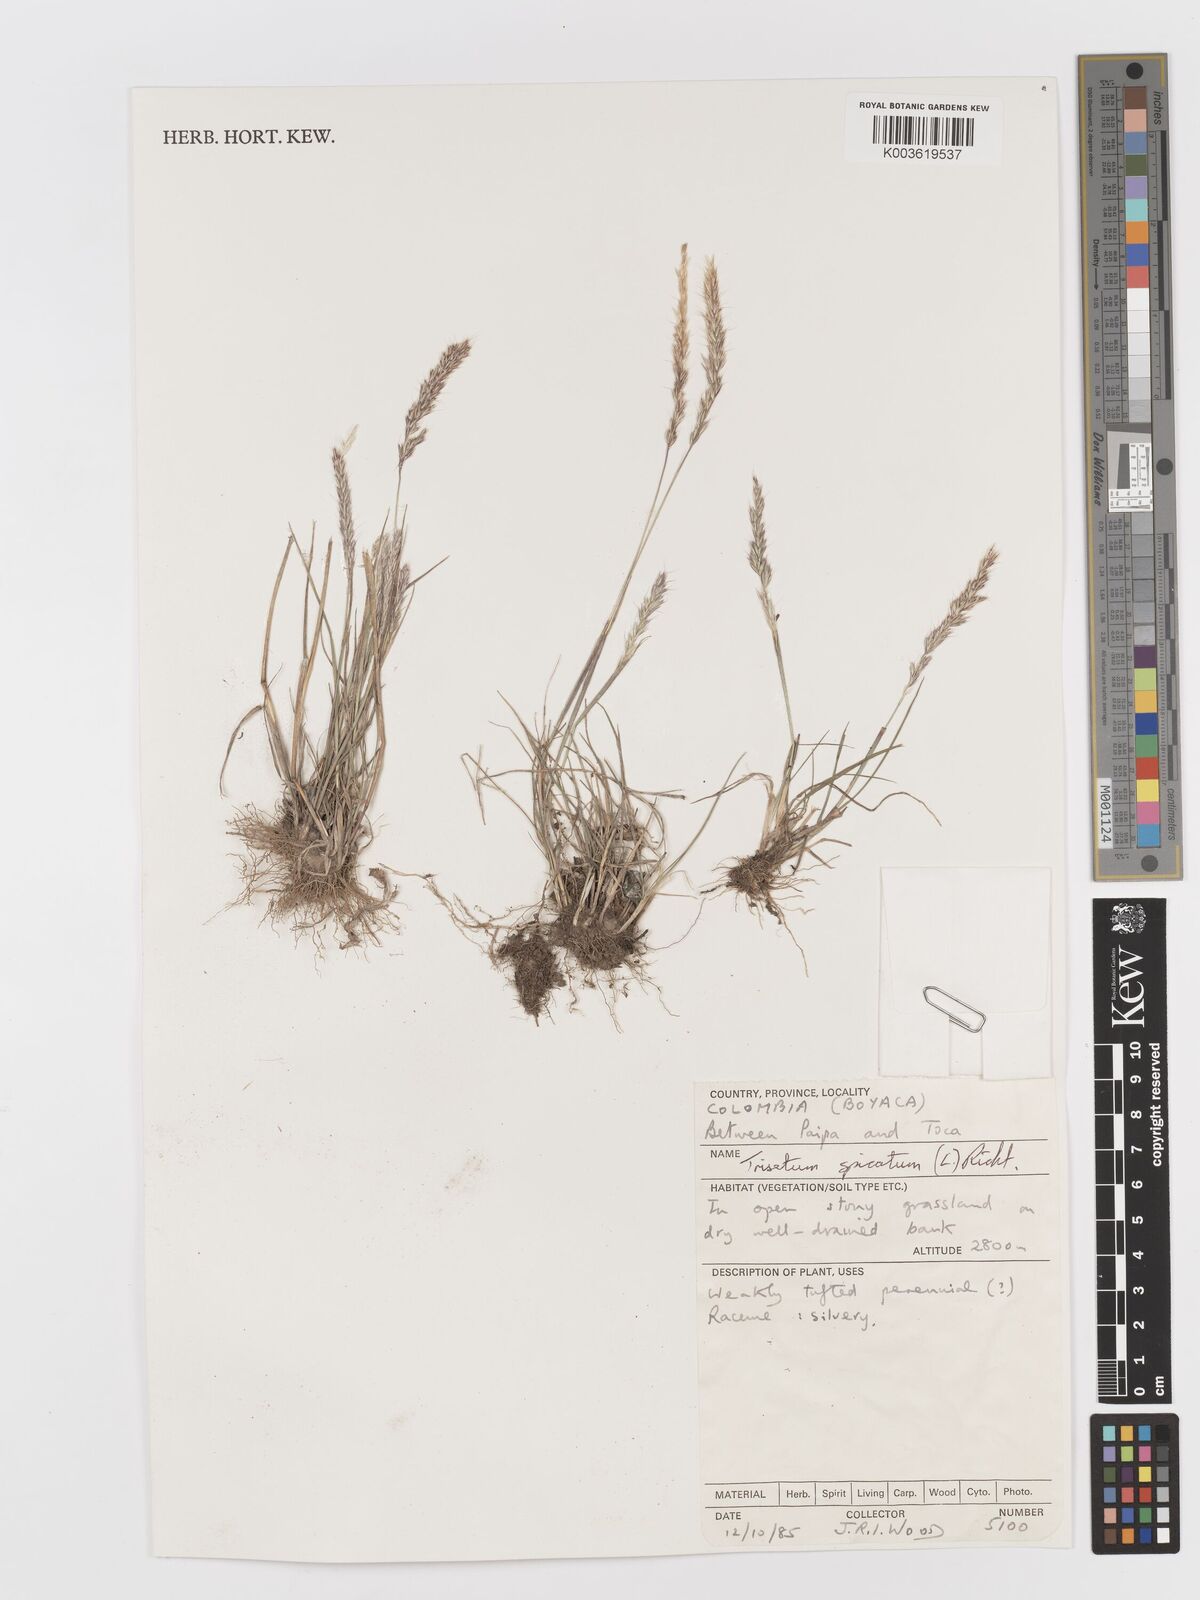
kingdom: Plantae
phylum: Tracheophyta
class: Liliopsida
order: Poales
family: Poaceae
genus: Peyritschia
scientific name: Peyritschia deyeuxioides
